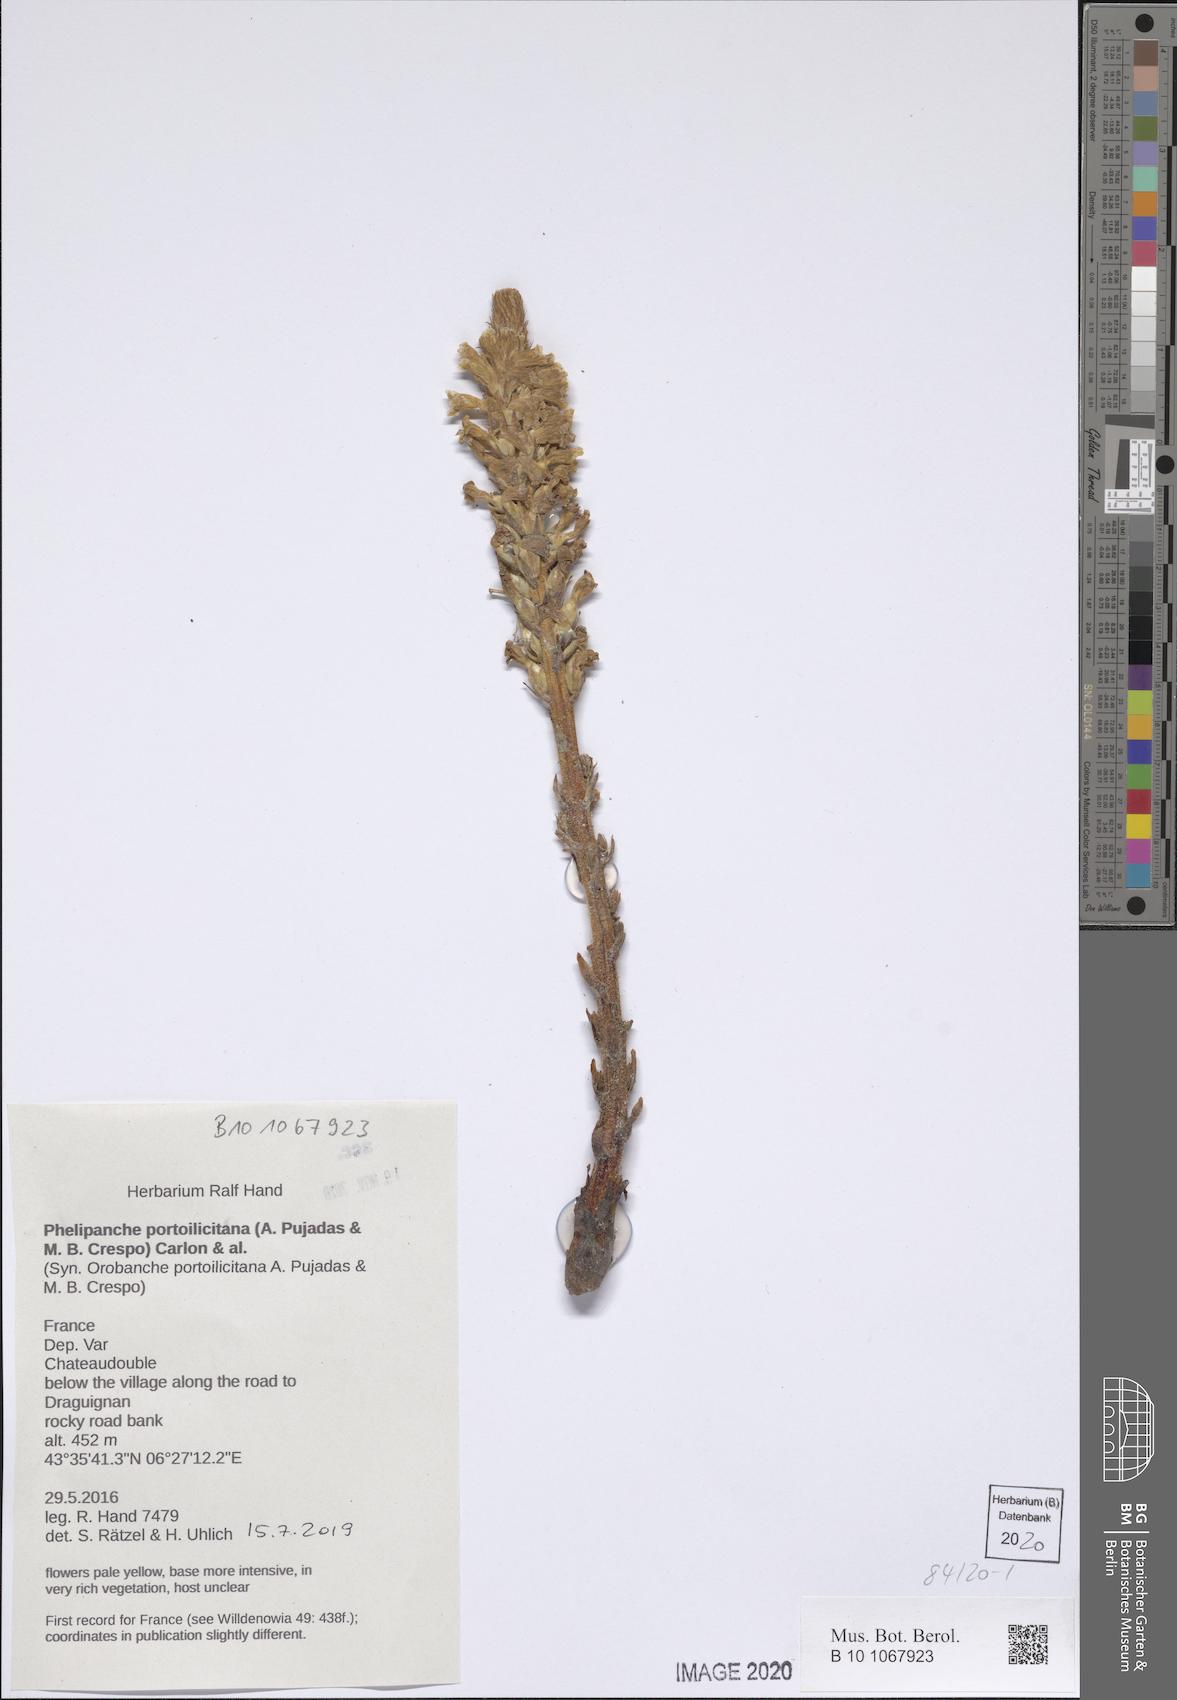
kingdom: Plantae
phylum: Tracheophyta
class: Magnoliopsida
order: Lamiales
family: Orobanchaceae
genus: Phelipanche
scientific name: Phelipanche portoilicitana
